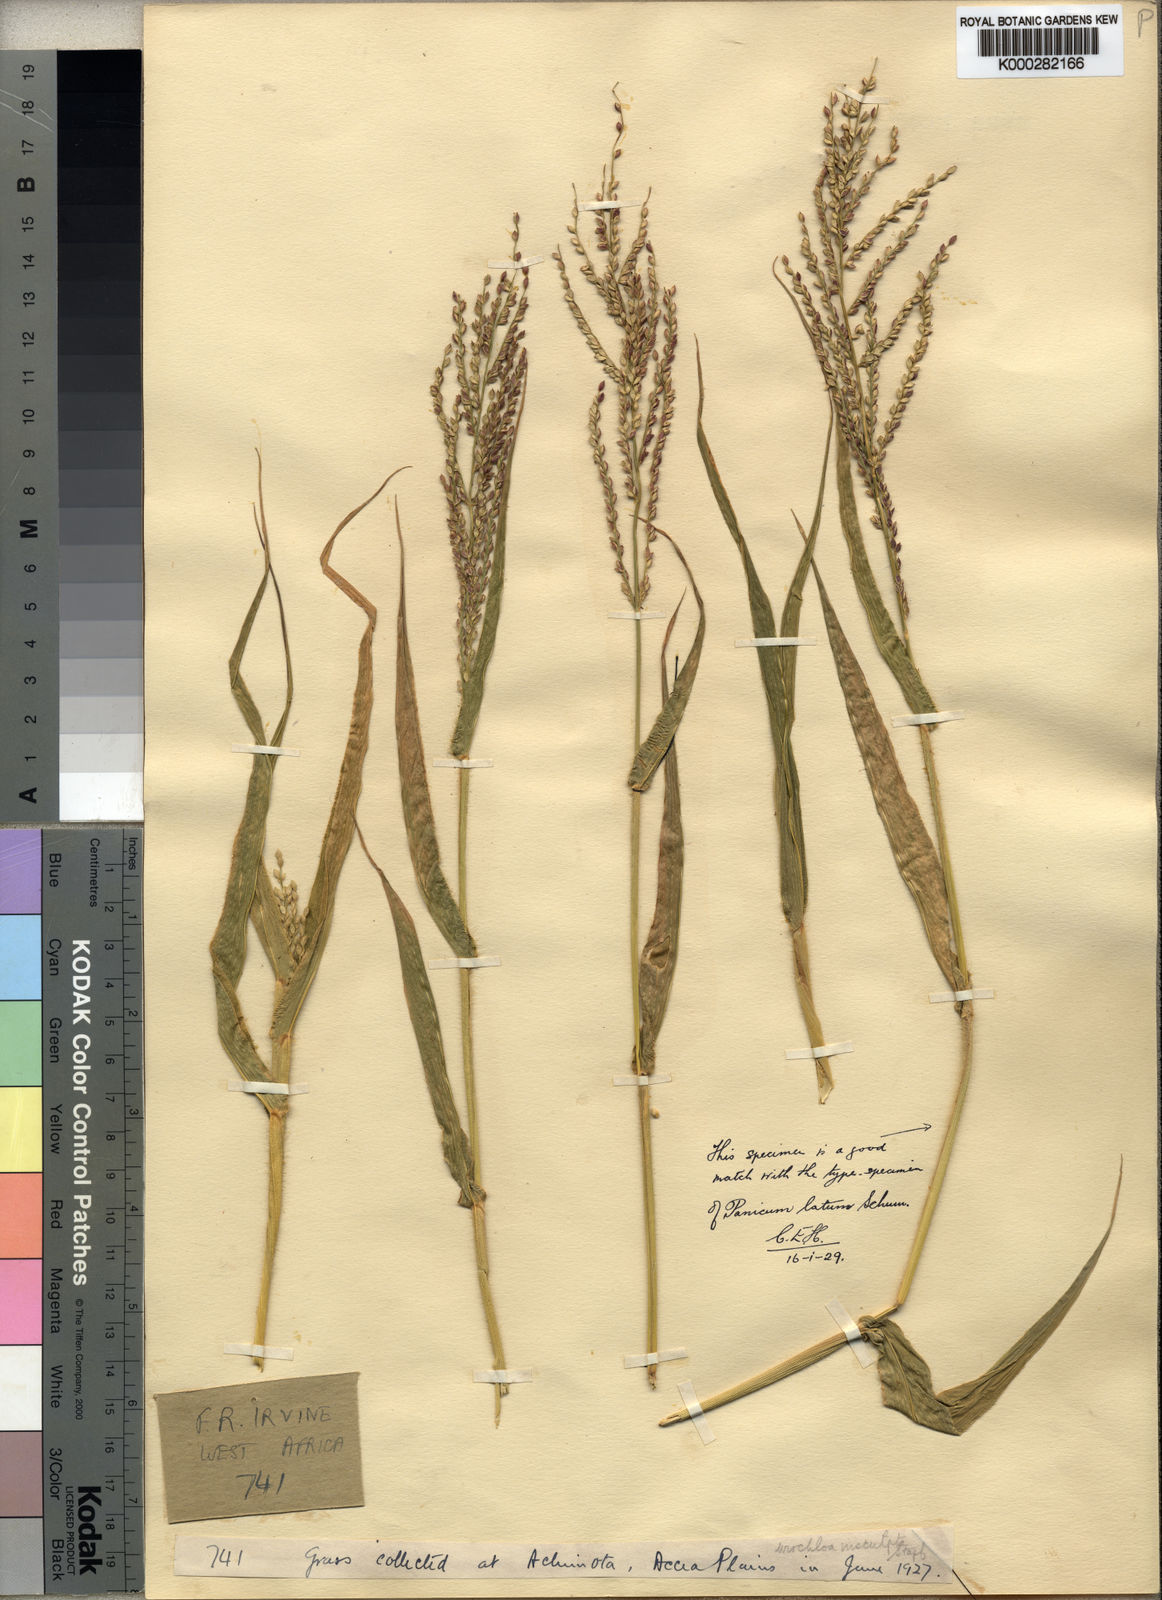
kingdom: Plantae
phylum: Tracheophyta
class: Liliopsida
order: Poales
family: Poaceae
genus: Urochloa
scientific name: Urochloa lata
